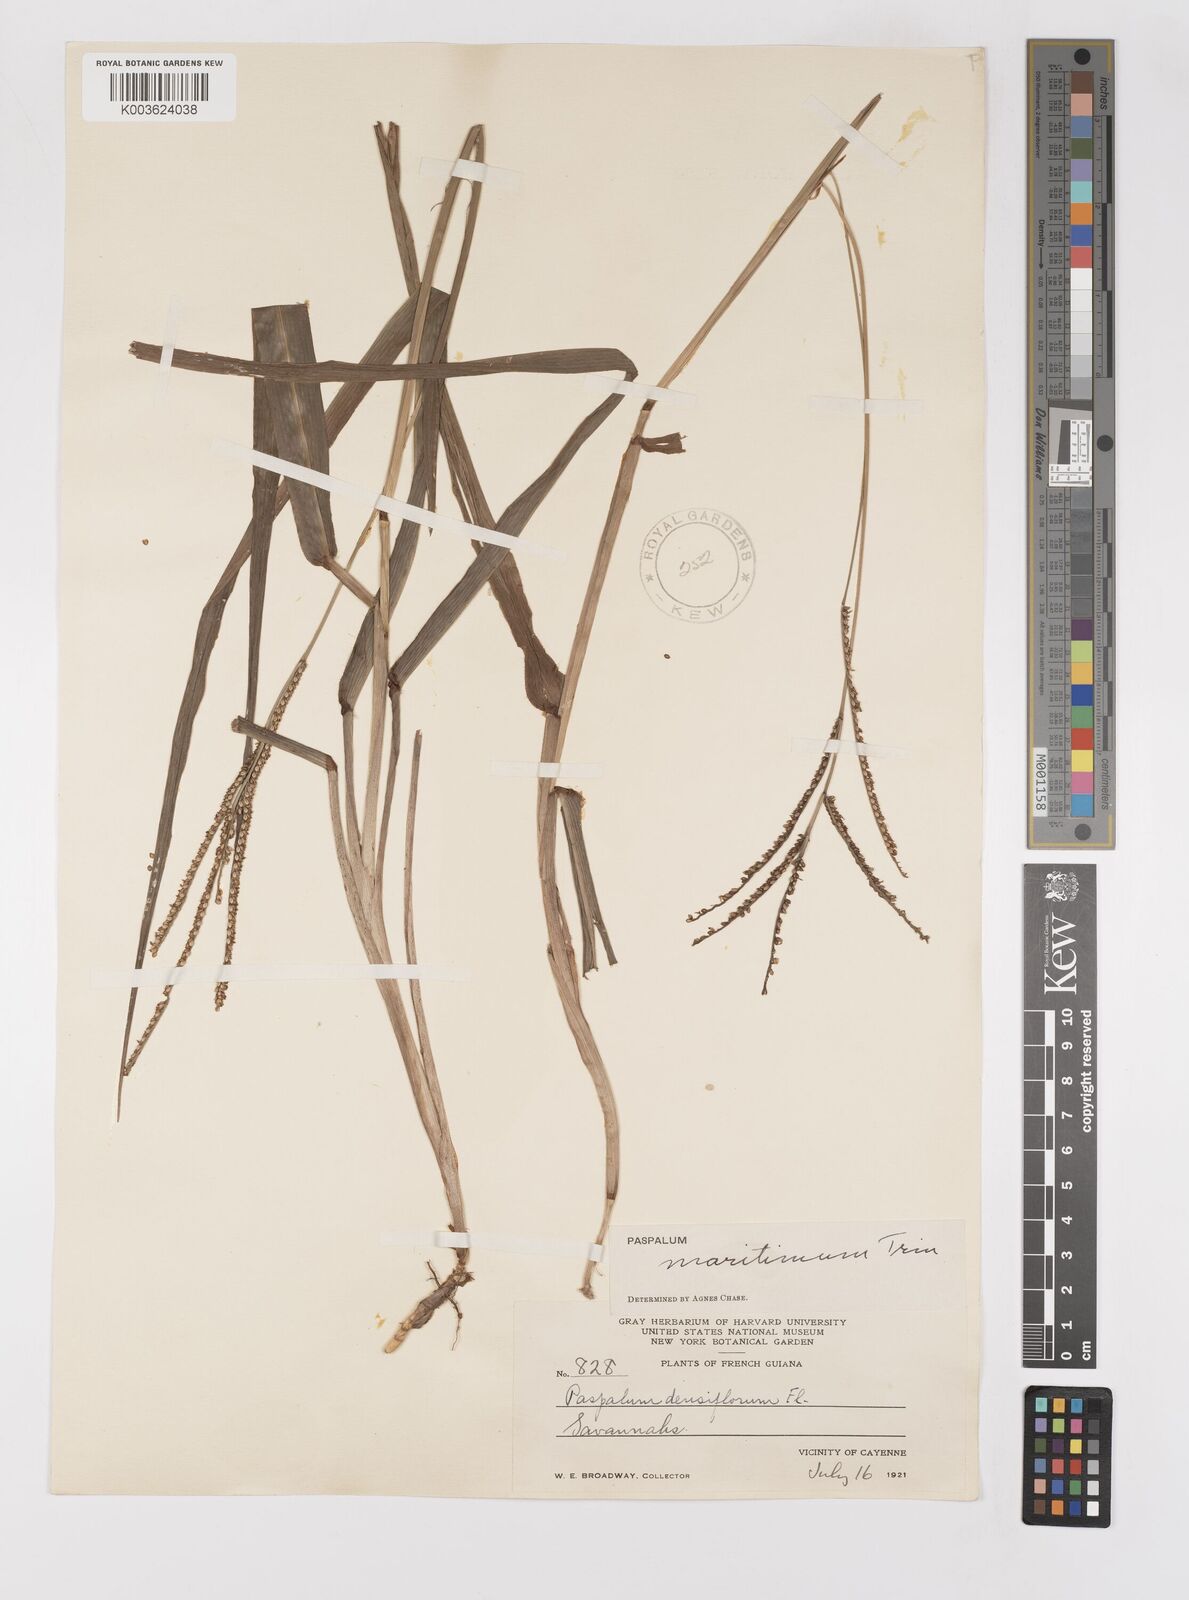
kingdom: Plantae
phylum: Tracheophyta
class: Liliopsida
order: Poales
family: Poaceae
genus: Paspalum
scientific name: Paspalum maritimum
